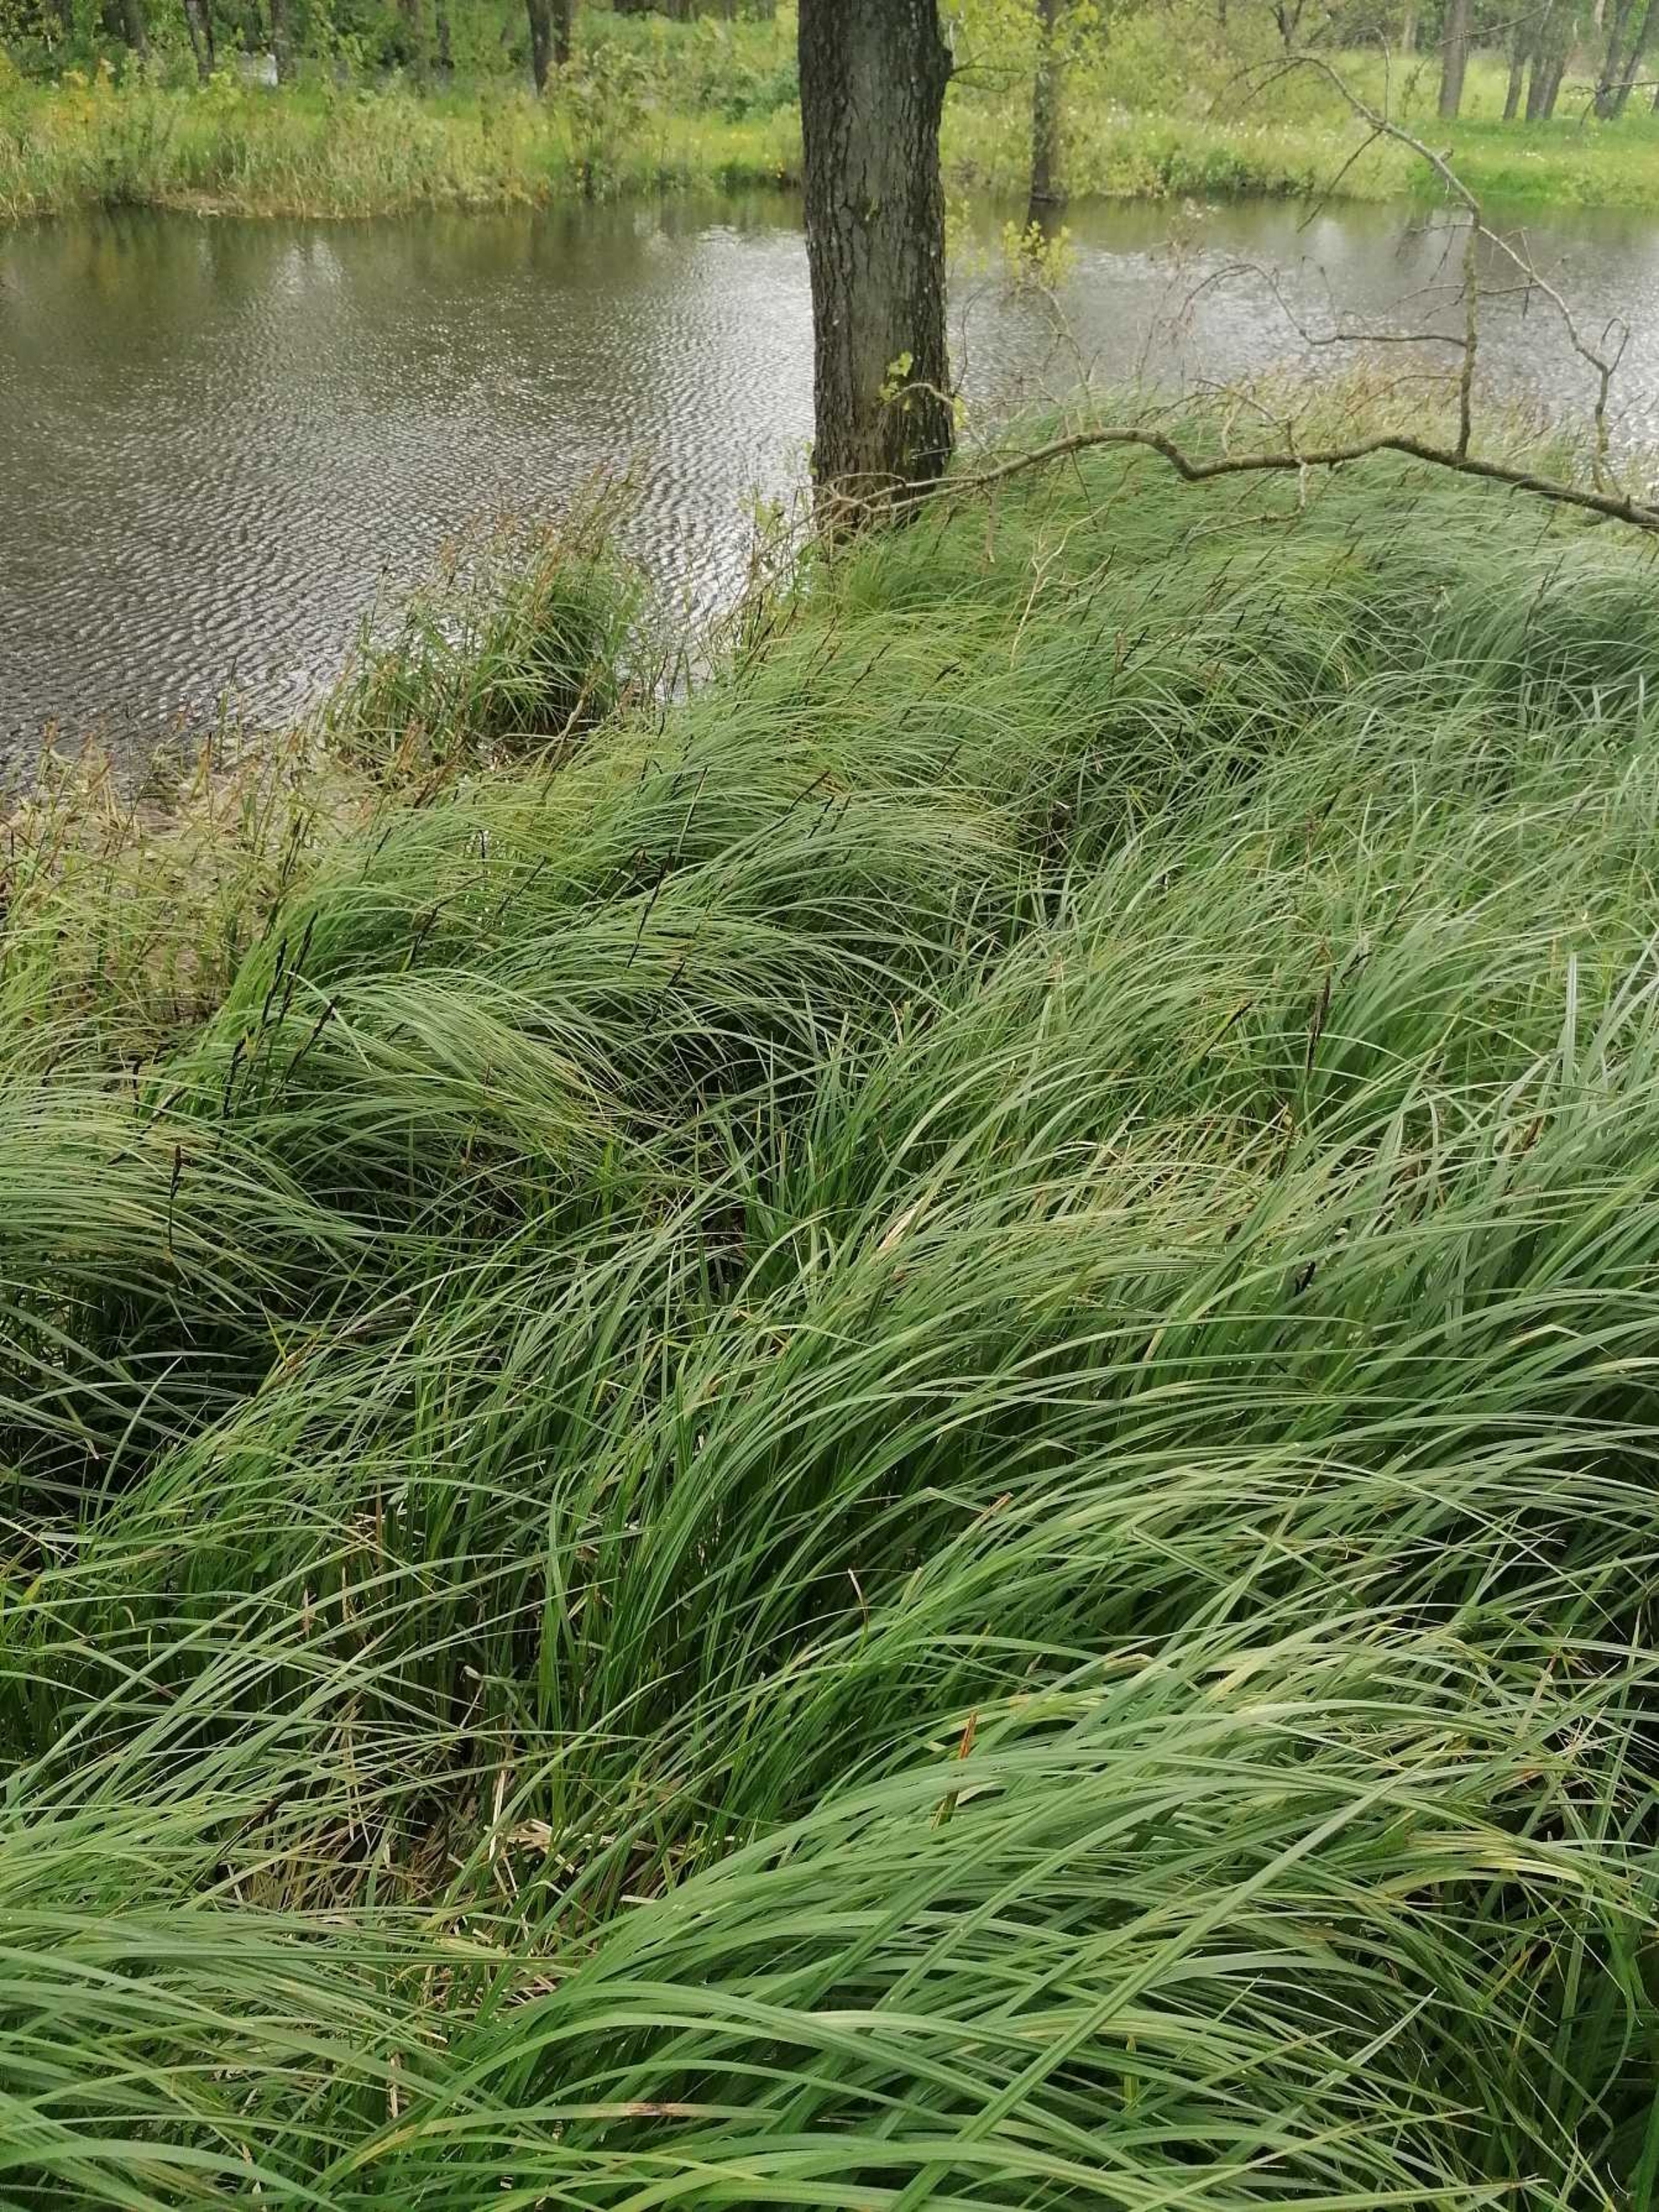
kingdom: Plantae
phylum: Tracheophyta
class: Liliopsida
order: Poales
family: Cyperaceae
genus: Carex
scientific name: Carex acutiformis
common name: Kær-star
